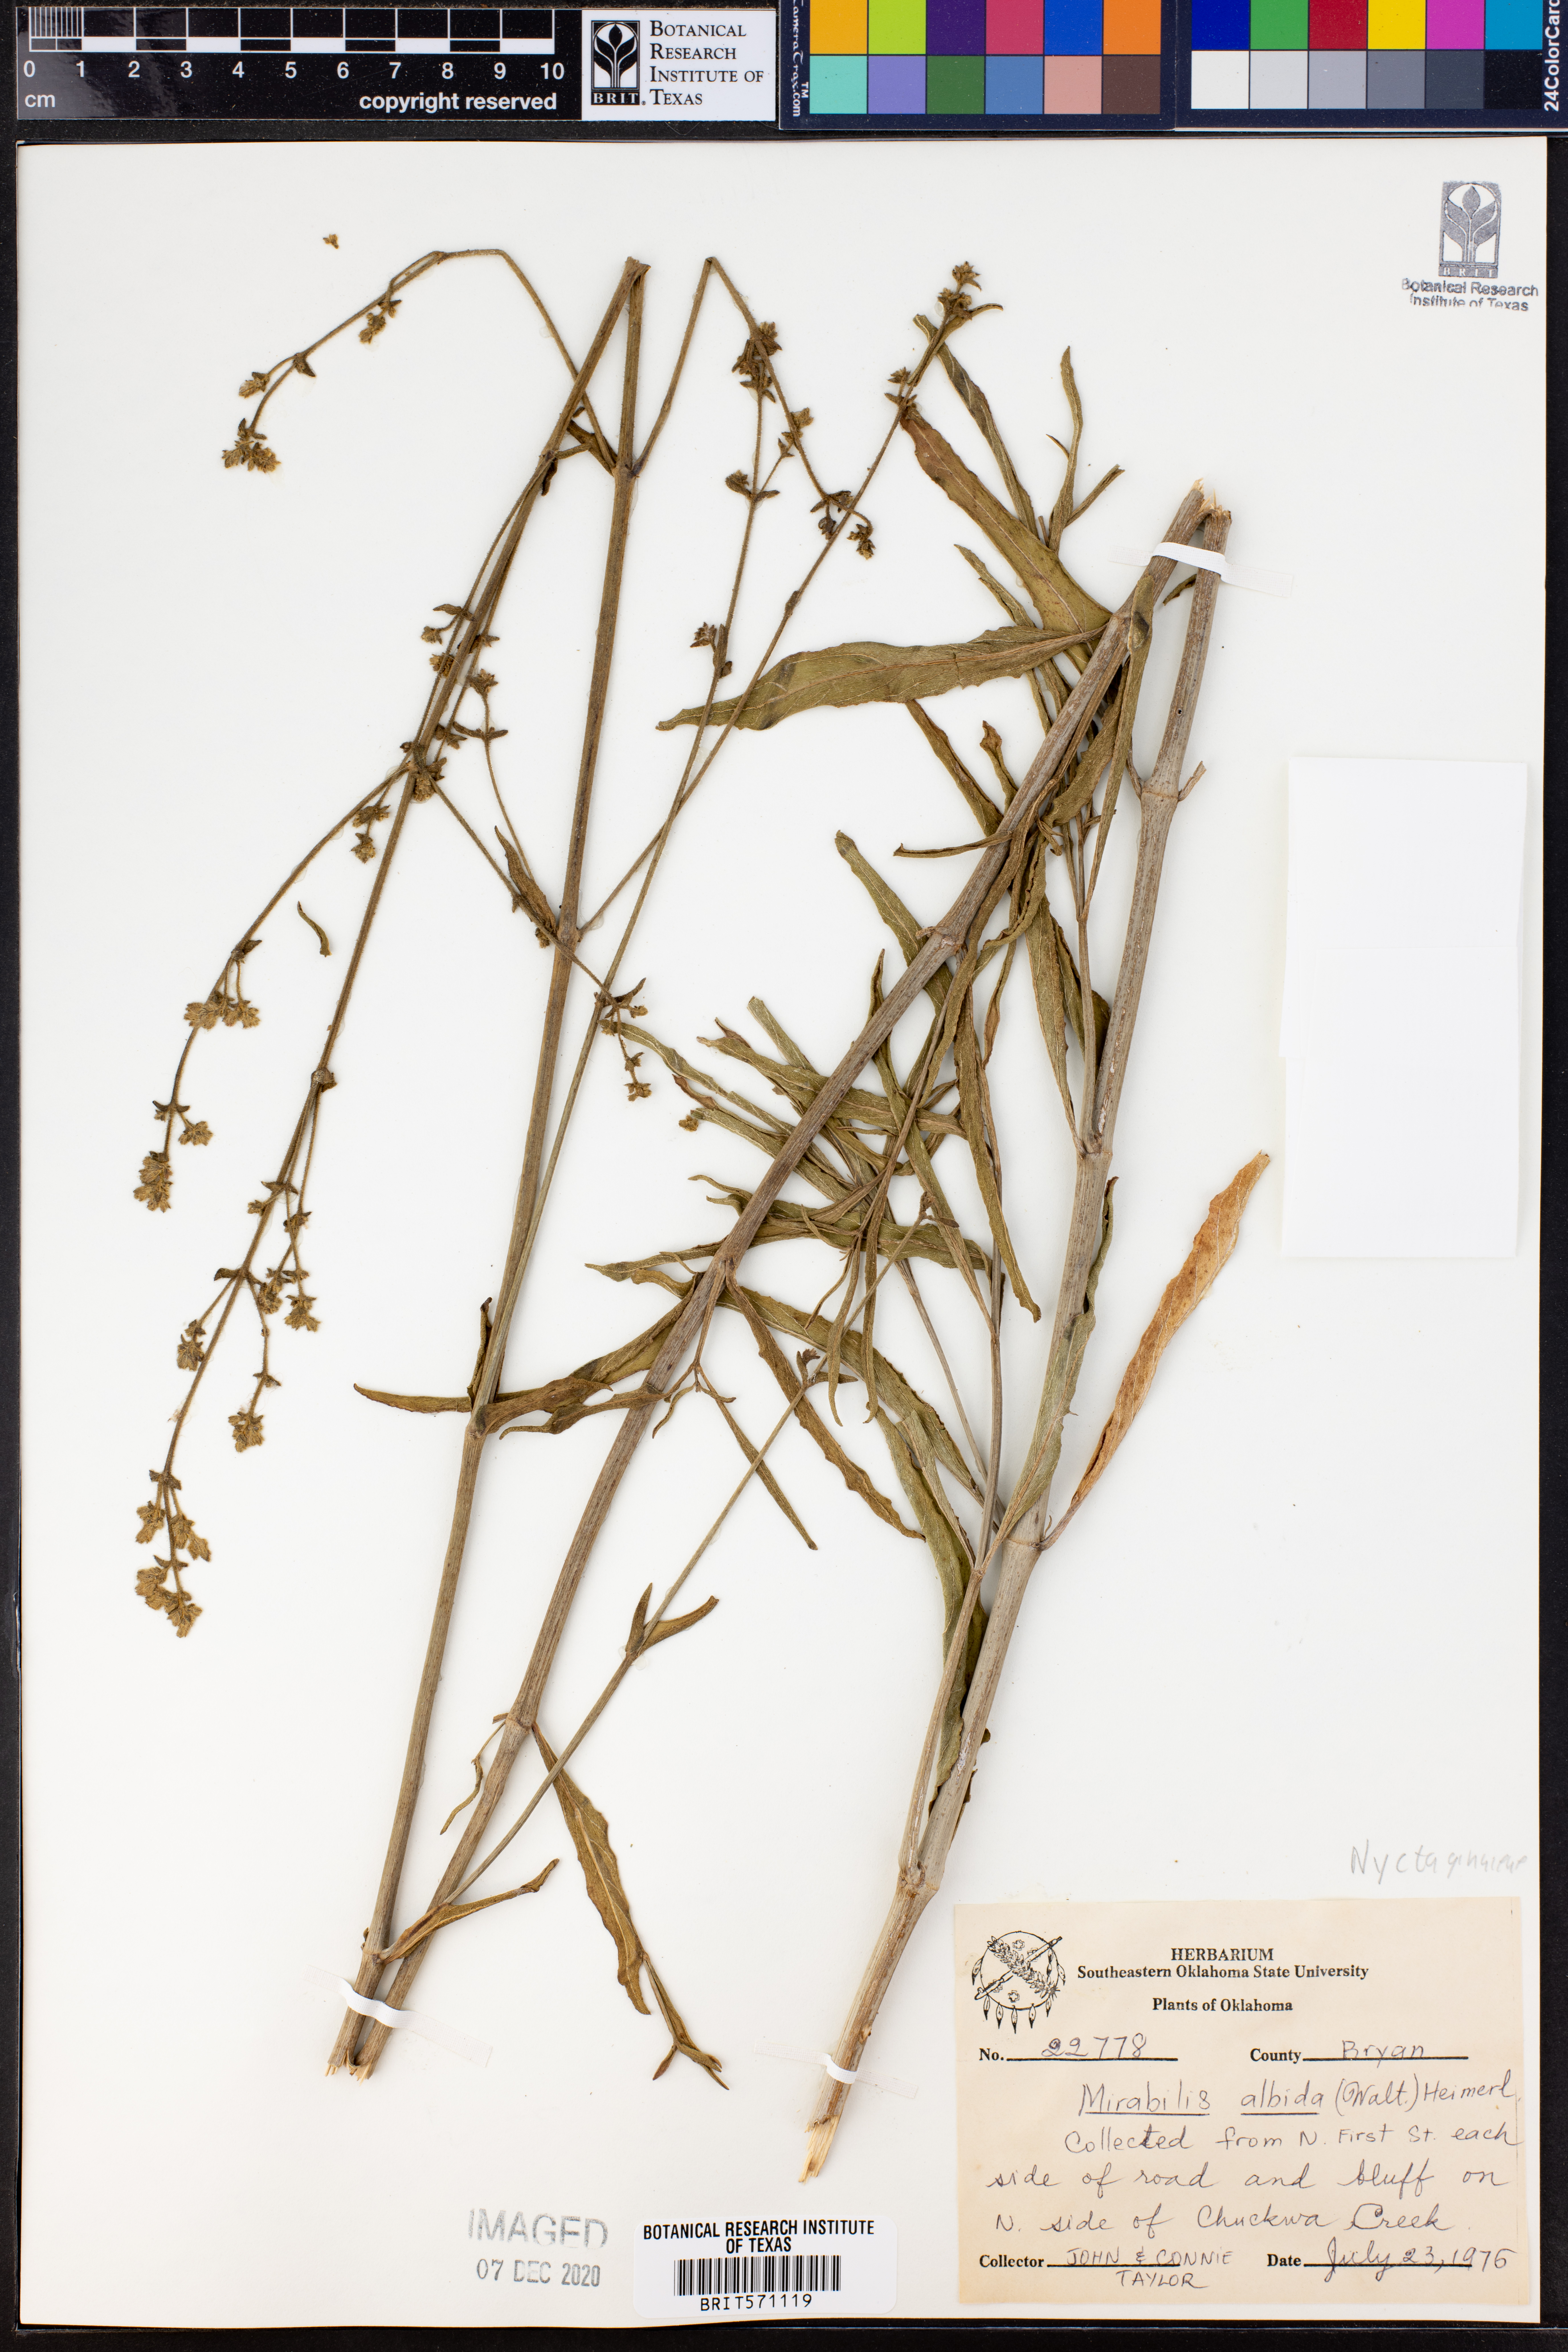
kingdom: Plantae
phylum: Tracheophyta
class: Magnoliopsida
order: Caryophyllales
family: Nyctaginaceae
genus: Mirabilis
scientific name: Mirabilis albida
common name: Hairy four-o'clock
